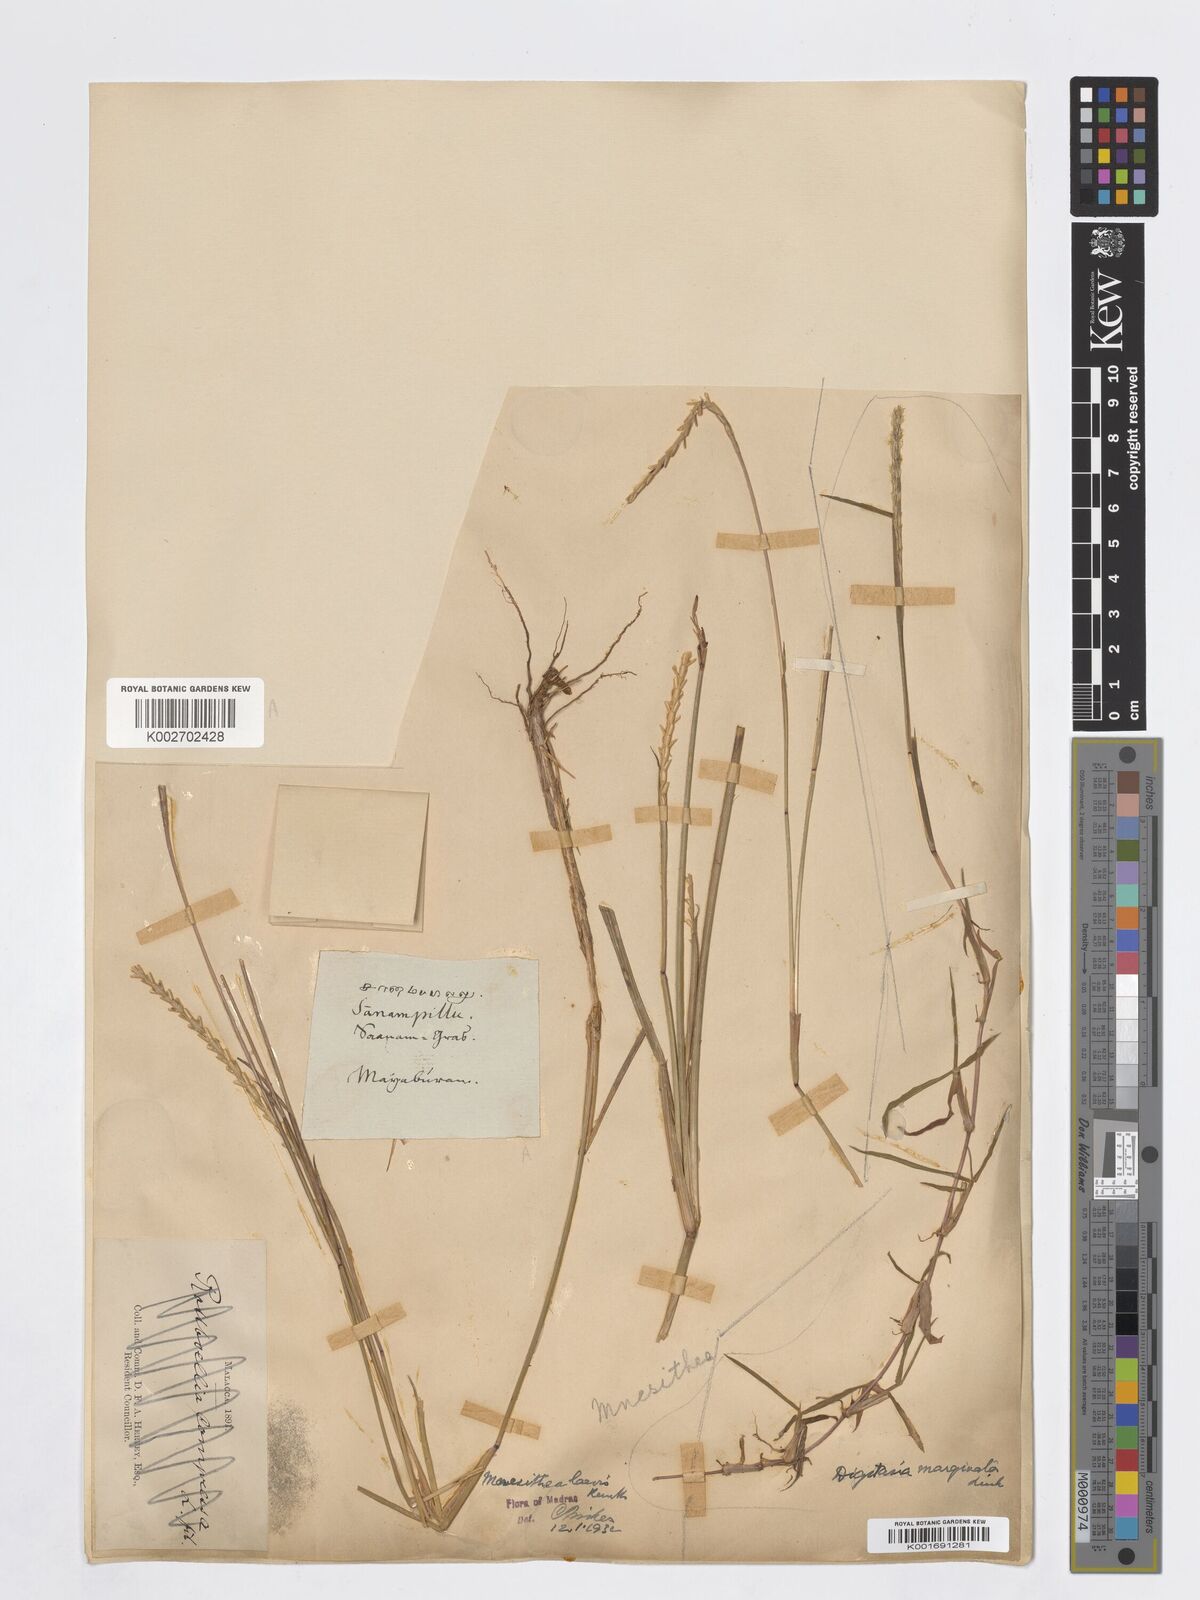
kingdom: Plantae
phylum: Tracheophyta
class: Liliopsida
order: Poales
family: Poaceae
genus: Mnesithea
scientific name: Mnesithea laevis
